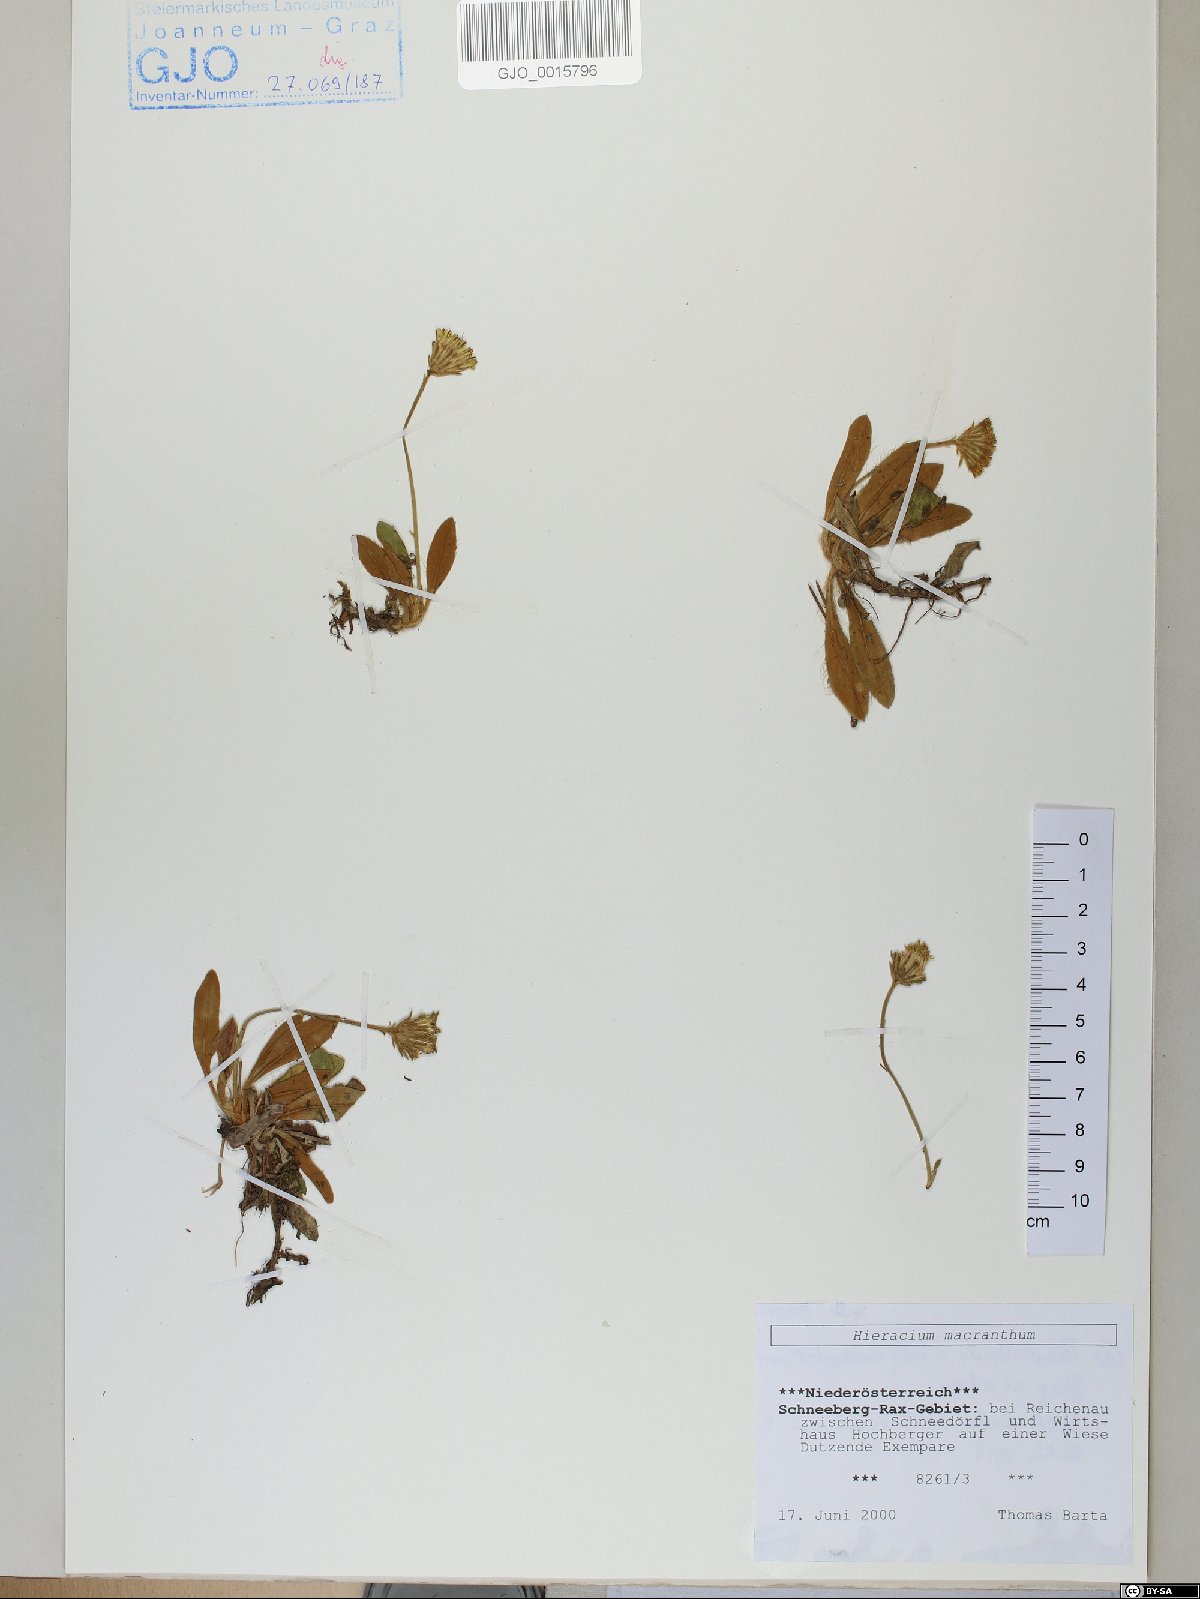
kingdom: Plantae
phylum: Tracheophyta
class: Magnoliopsida
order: Asterales
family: Asteraceae
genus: Pilosella
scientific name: Pilosella hoppeana
